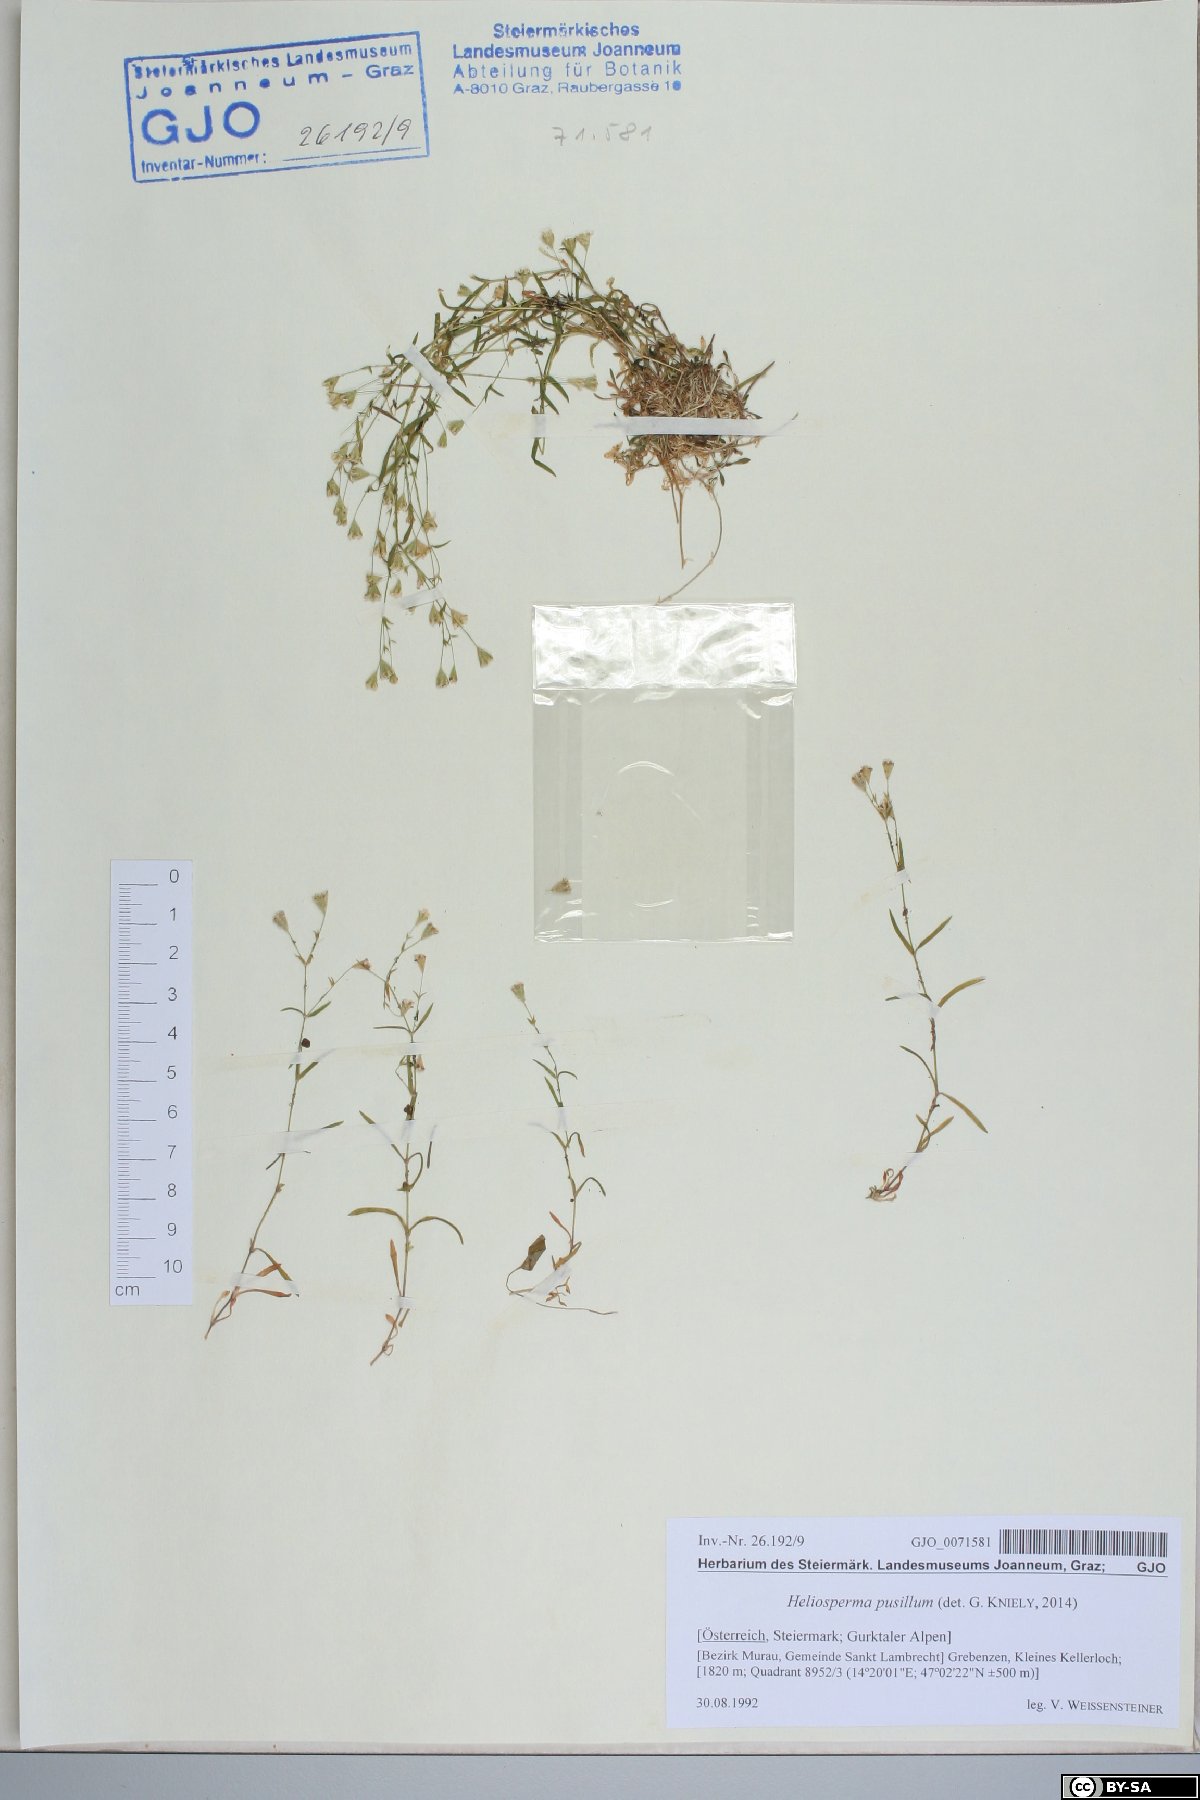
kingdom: Plantae
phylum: Tracheophyta
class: Magnoliopsida
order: Caryophyllales
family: Caryophyllaceae
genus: Heliosperma
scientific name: Heliosperma pusillum
